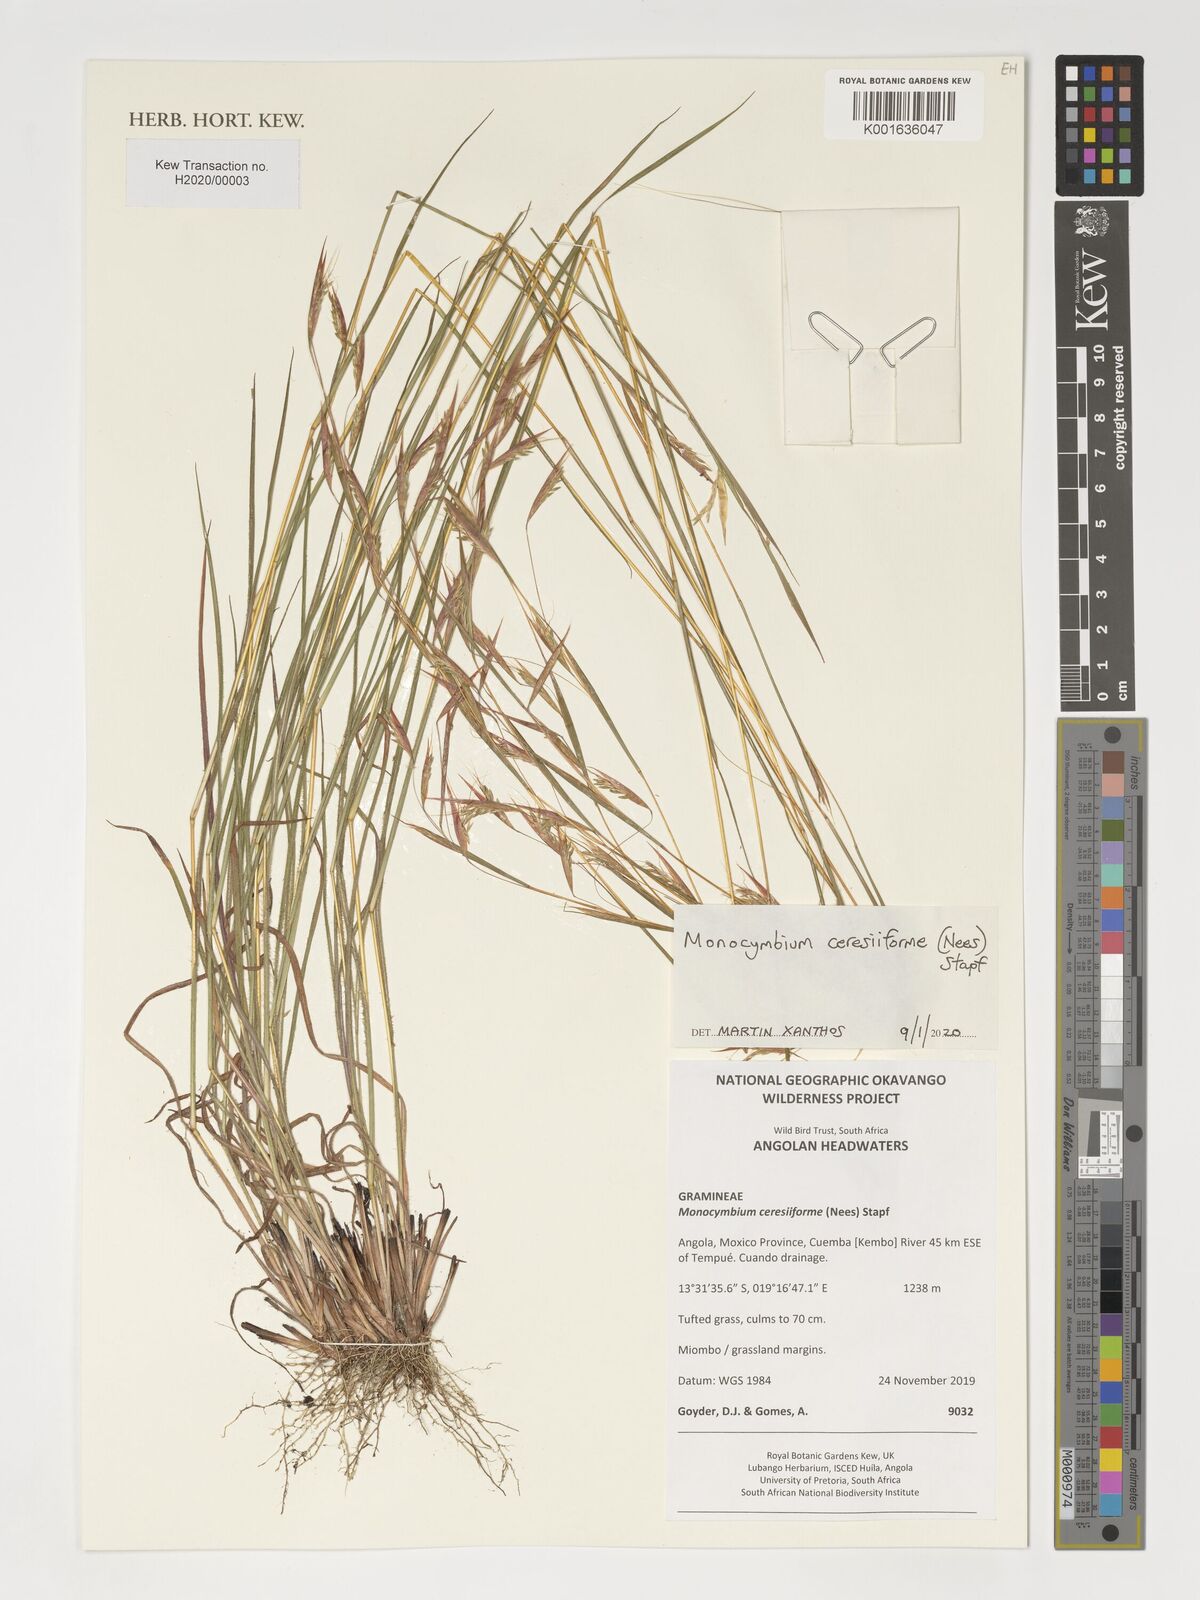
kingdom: Plantae
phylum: Tracheophyta
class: Liliopsida
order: Poales
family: Poaceae
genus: Monocymbium
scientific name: Monocymbium ceresiiforme
